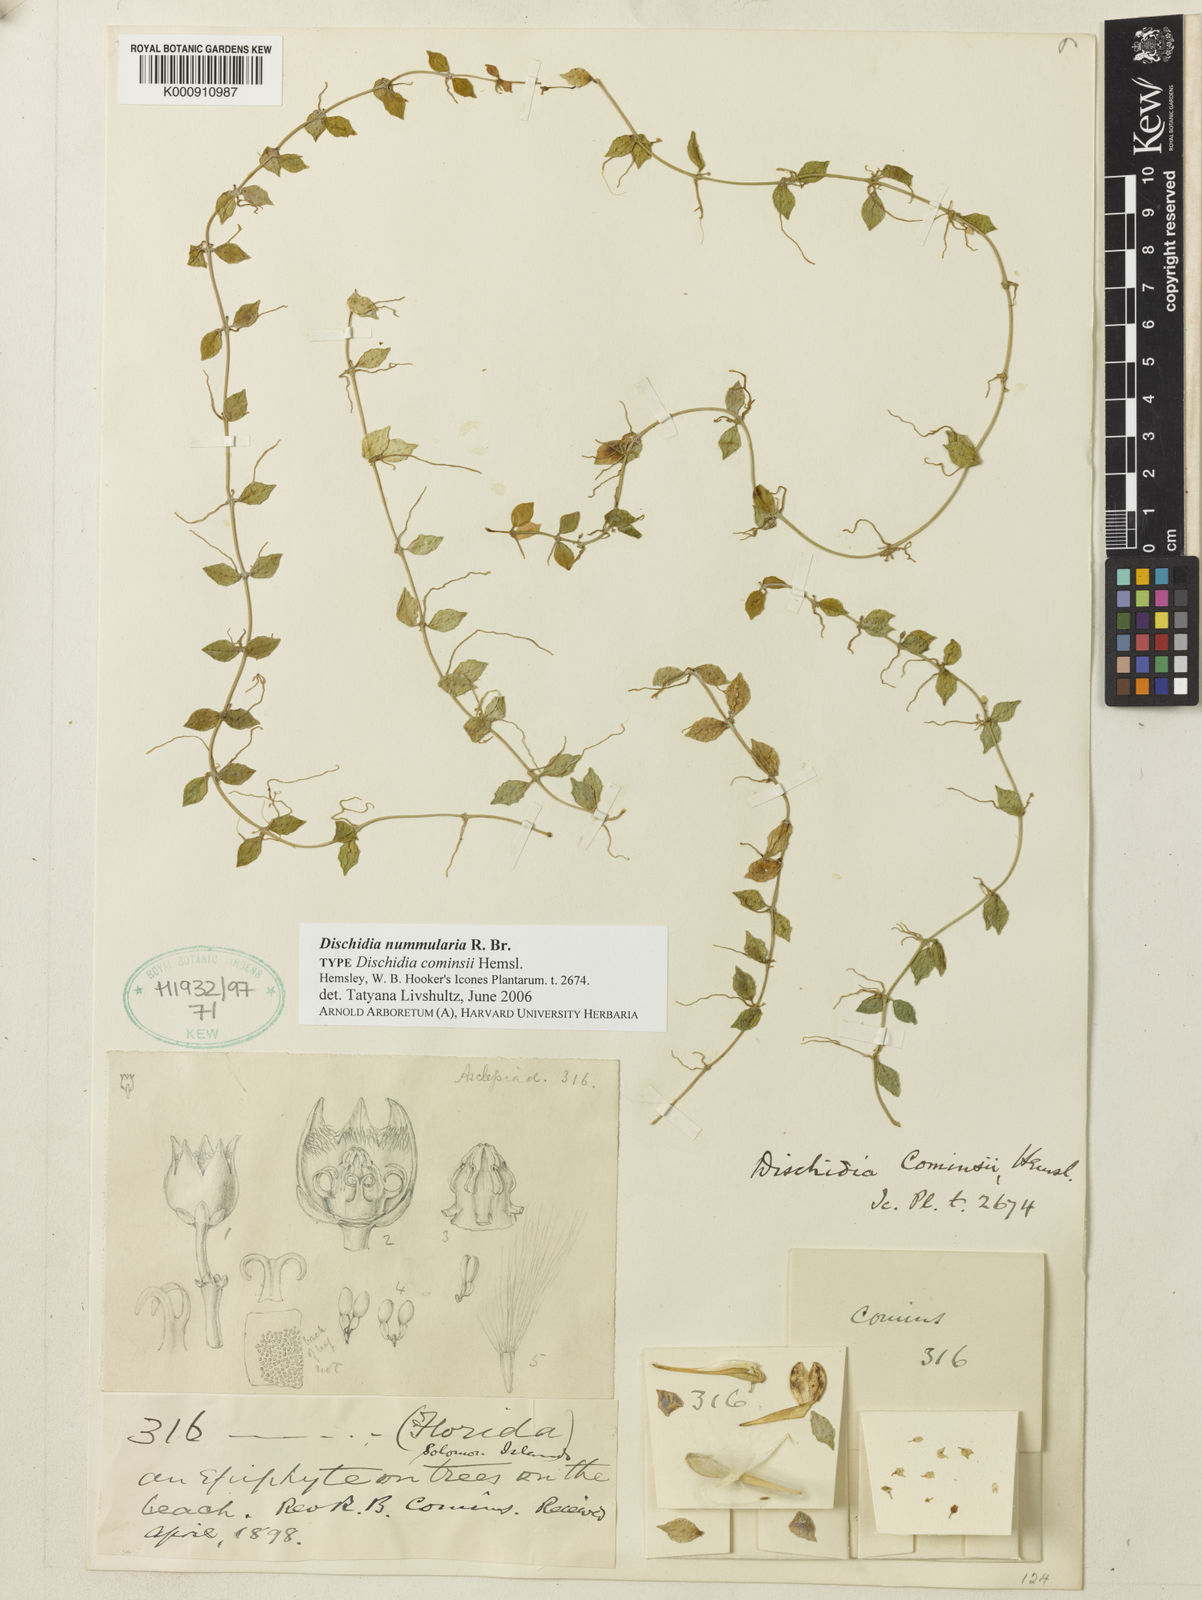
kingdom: Plantae
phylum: Tracheophyta
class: Magnoliopsida
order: Gentianales
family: Apocynaceae
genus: Dischidia
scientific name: Dischidia nummularia
